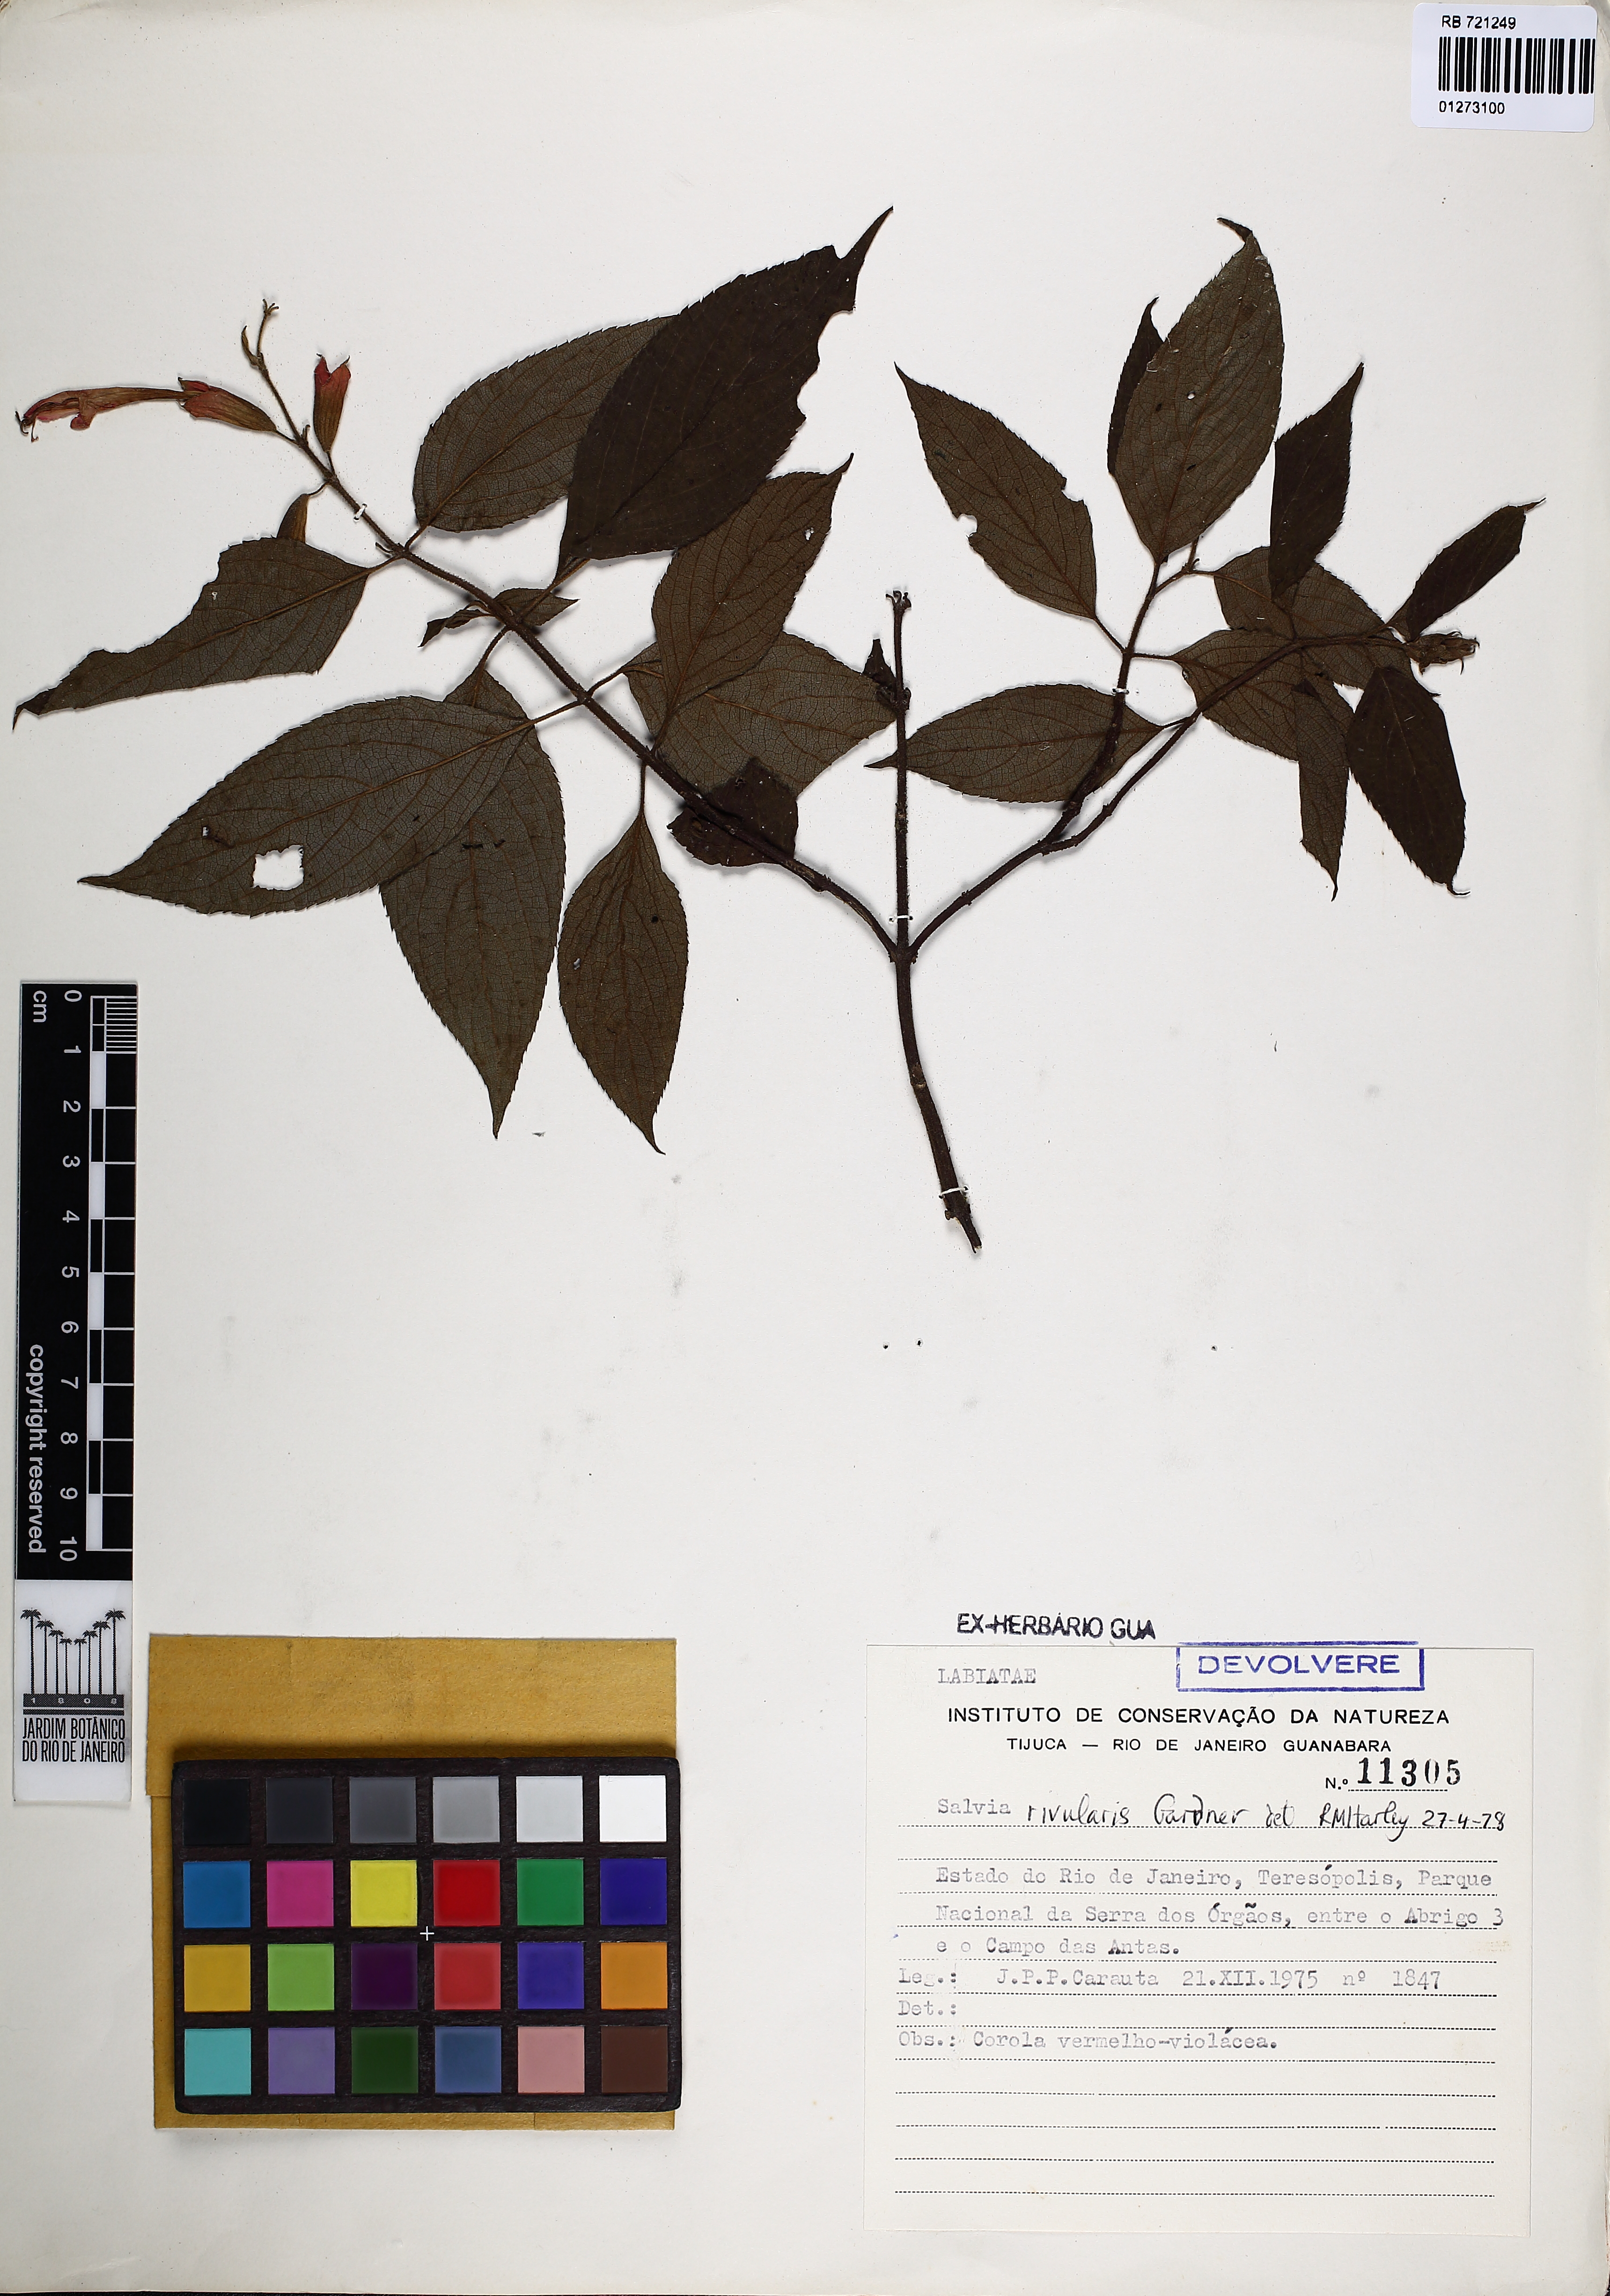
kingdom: Plantae
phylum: Tracheophyta
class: Magnoliopsida
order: Lamiales
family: Lamiaceae
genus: Salvia
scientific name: Salvia rivularis
